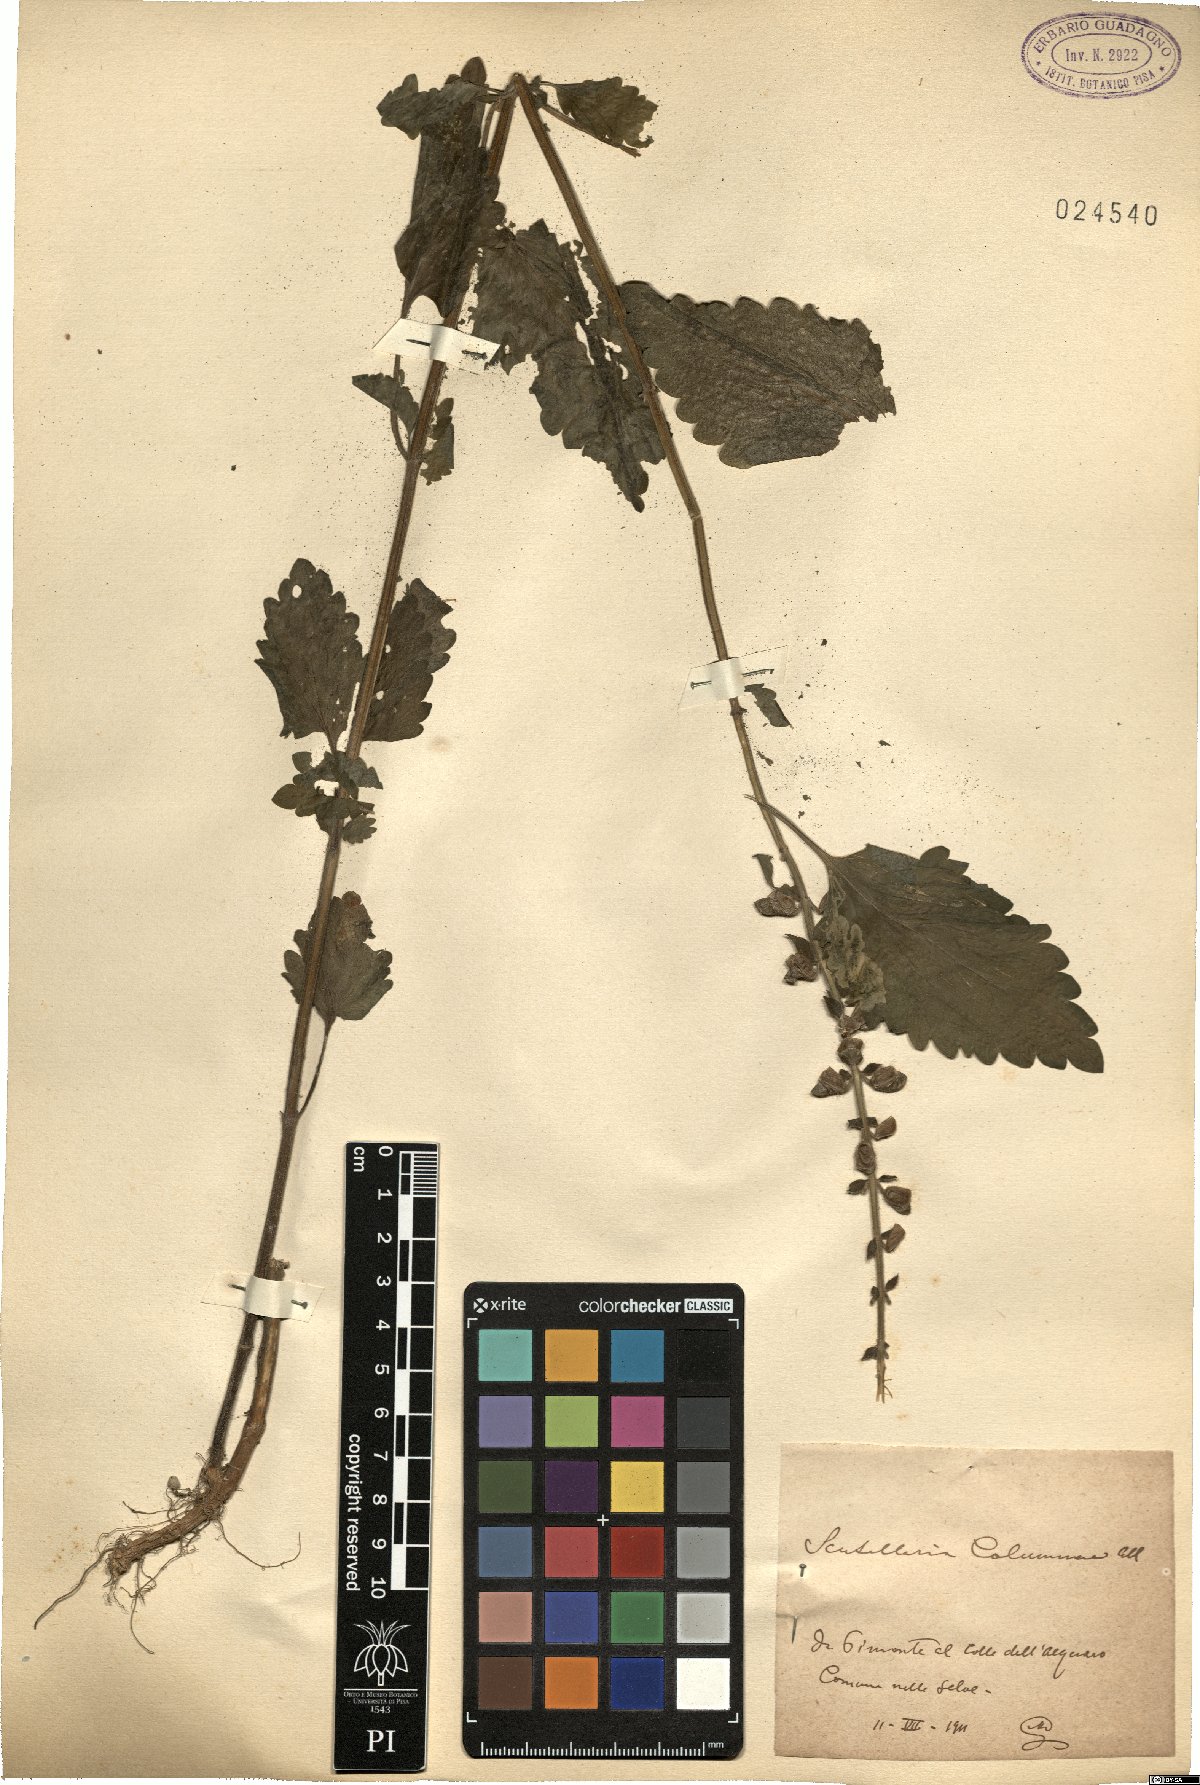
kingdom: Plantae
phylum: Tracheophyta
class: Magnoliopsida
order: Lamiales
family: Lamiaceae
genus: Scutellaria
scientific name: Scutellaria columnae
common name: Large skullcap
